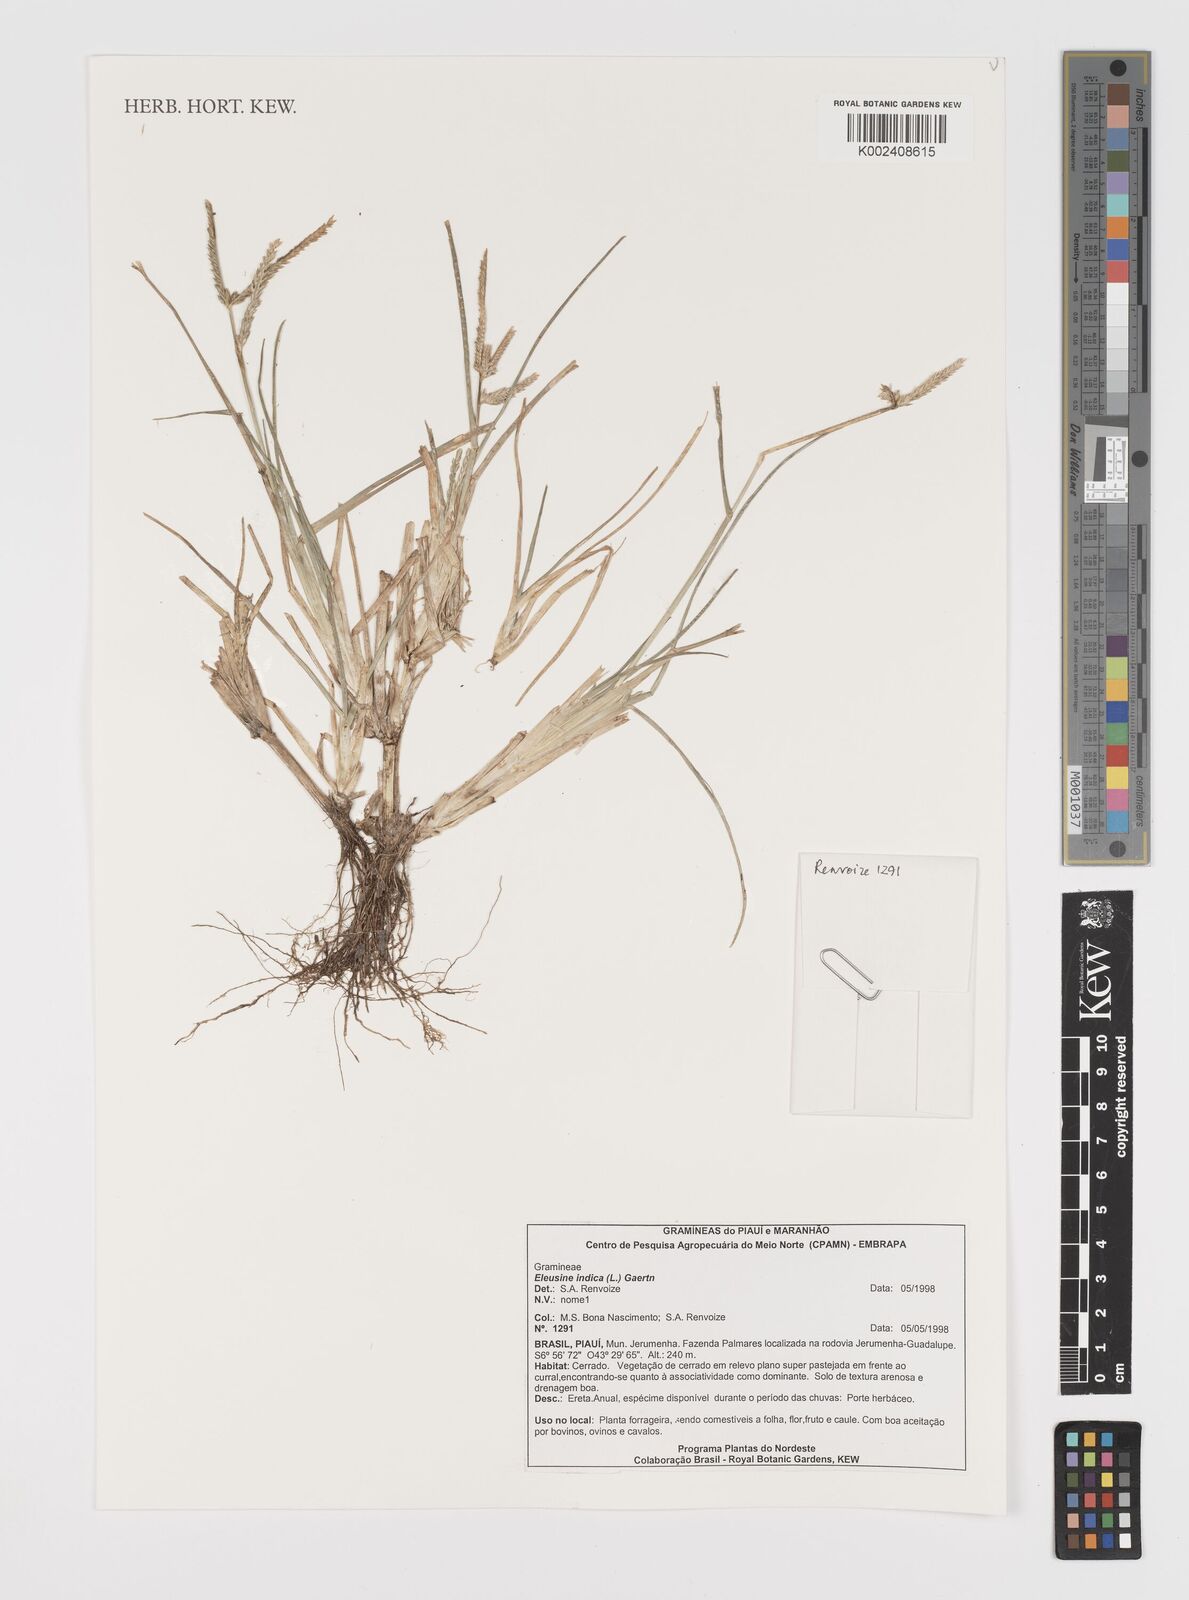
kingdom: Plantae
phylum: Tracheophyta
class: Liliopsida
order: Poales
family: Poaceae
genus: Eleusine
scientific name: Eleusine indica
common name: Yard-grass
